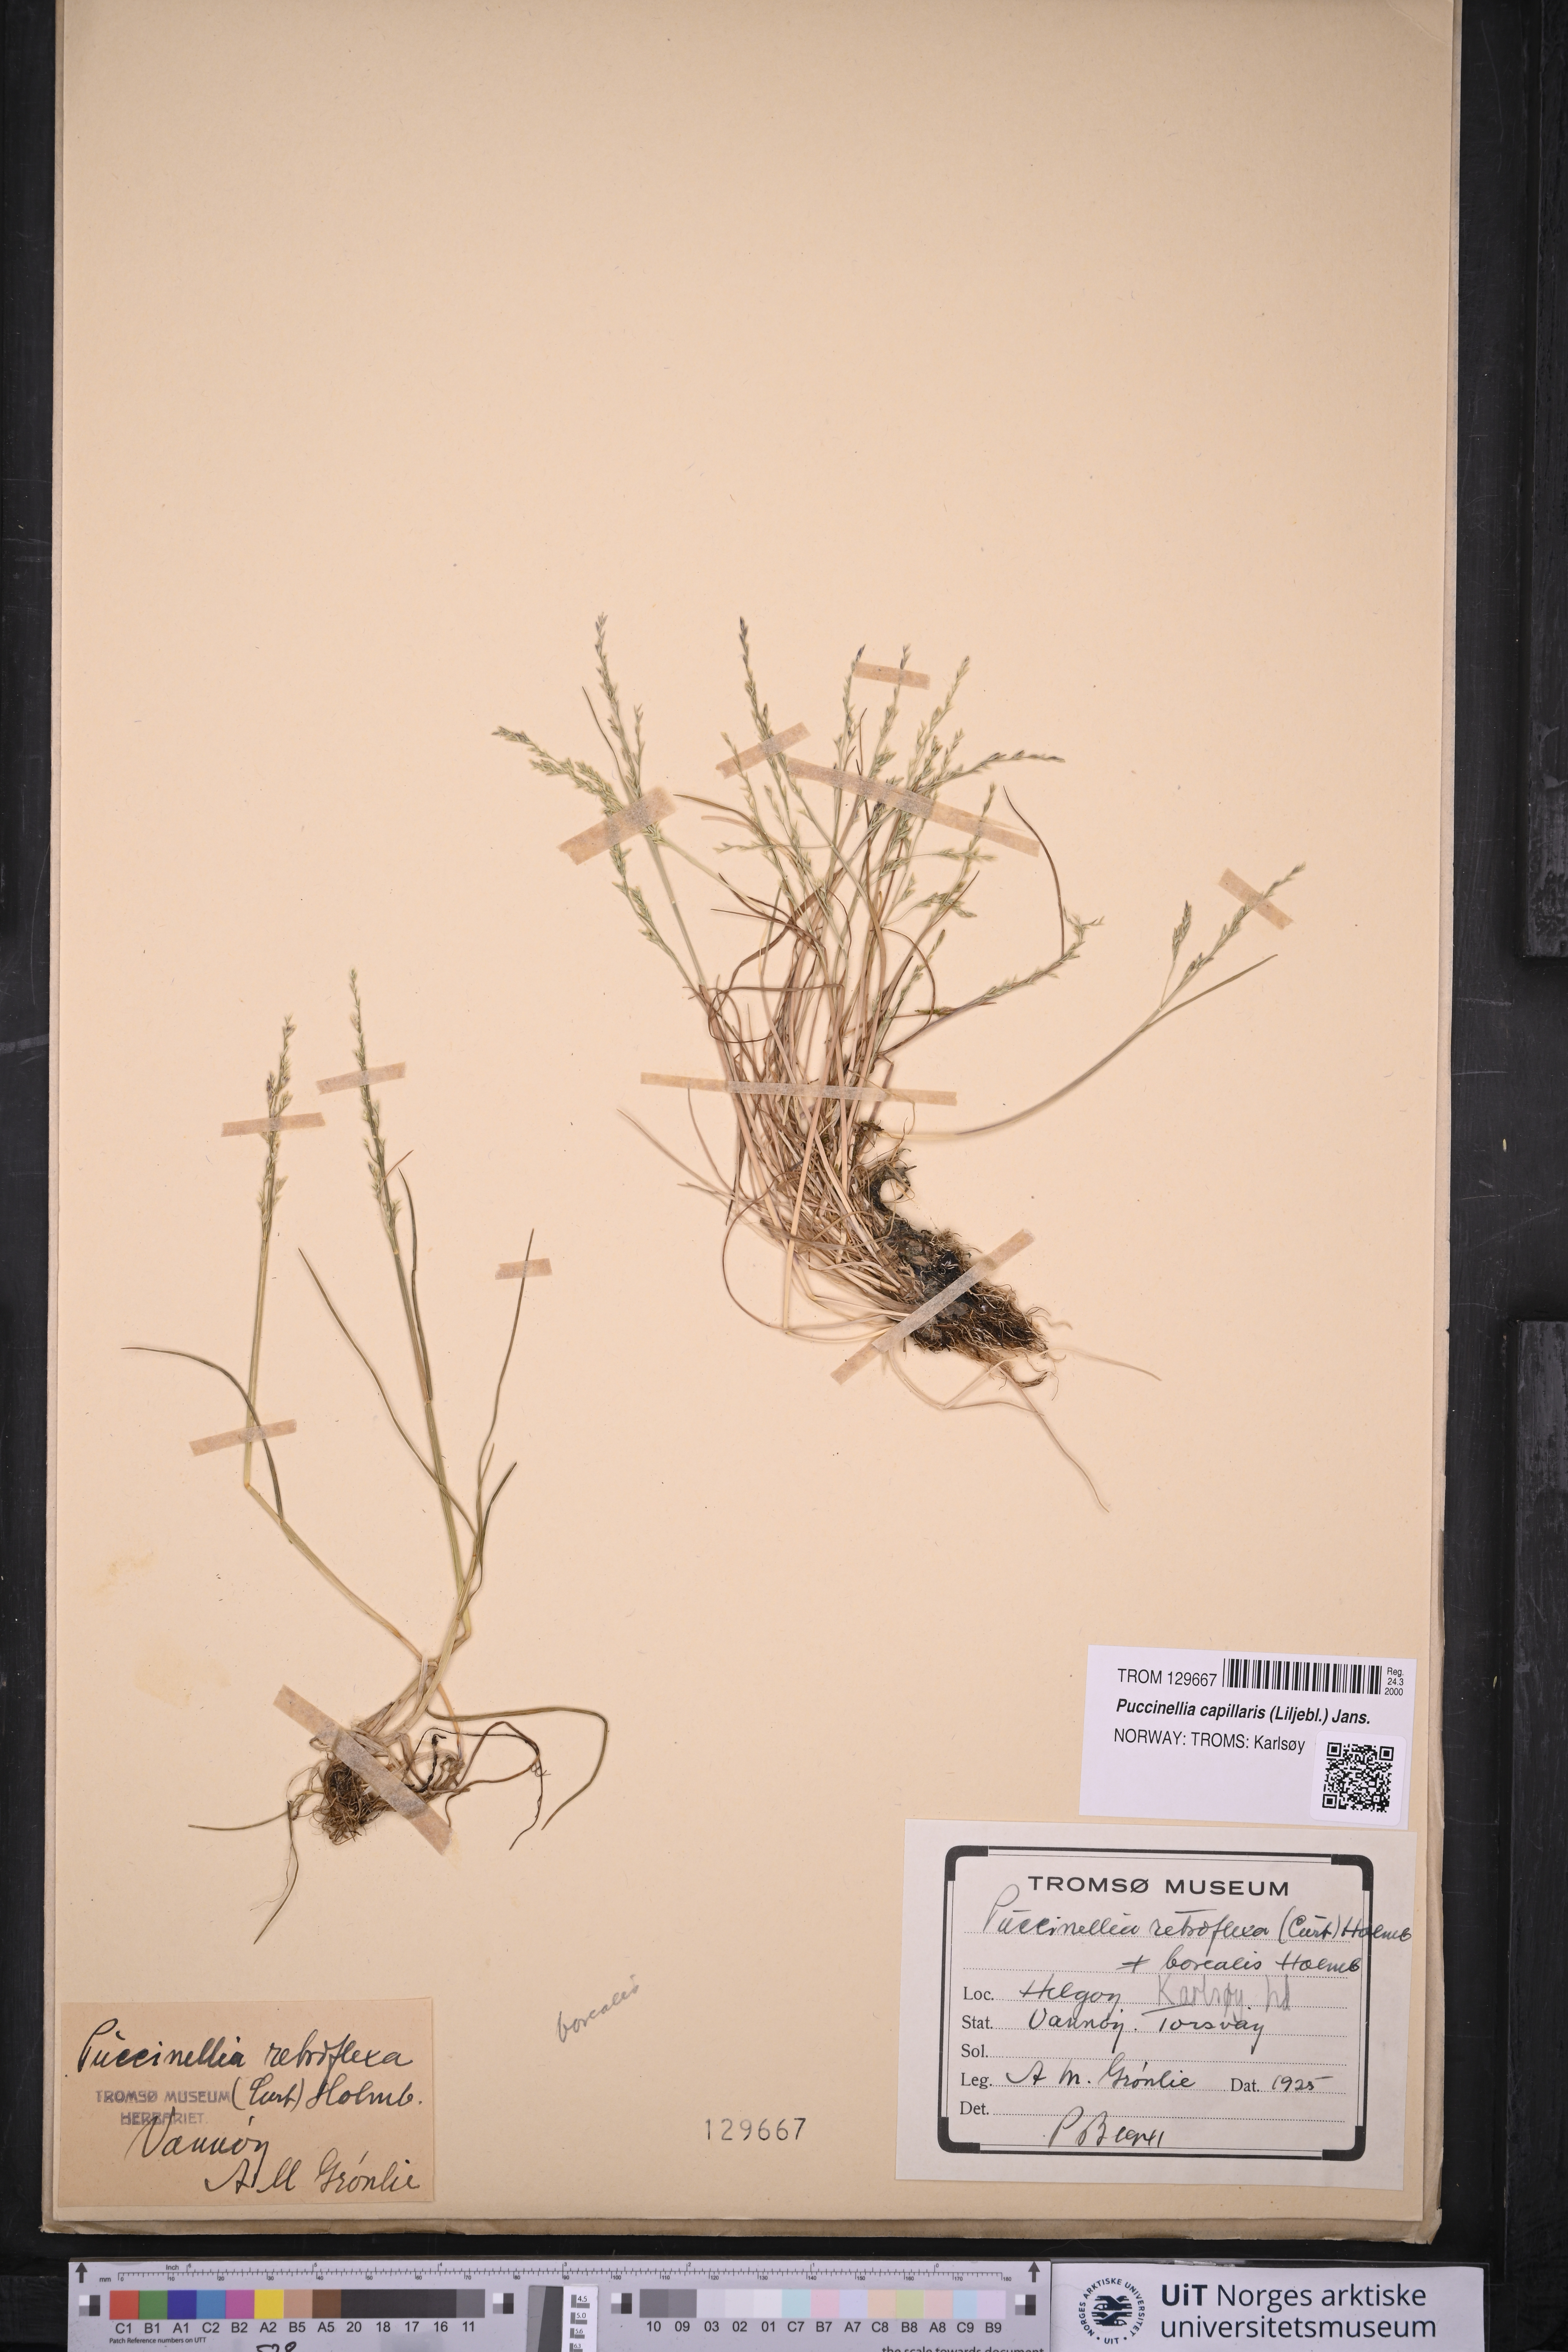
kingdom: Plantae
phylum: Tracheophyta
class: Liliopsida
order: Poales
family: Poaceae
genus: Puccinellia
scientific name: Puccinellia distans
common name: Weeping alkaligrass
